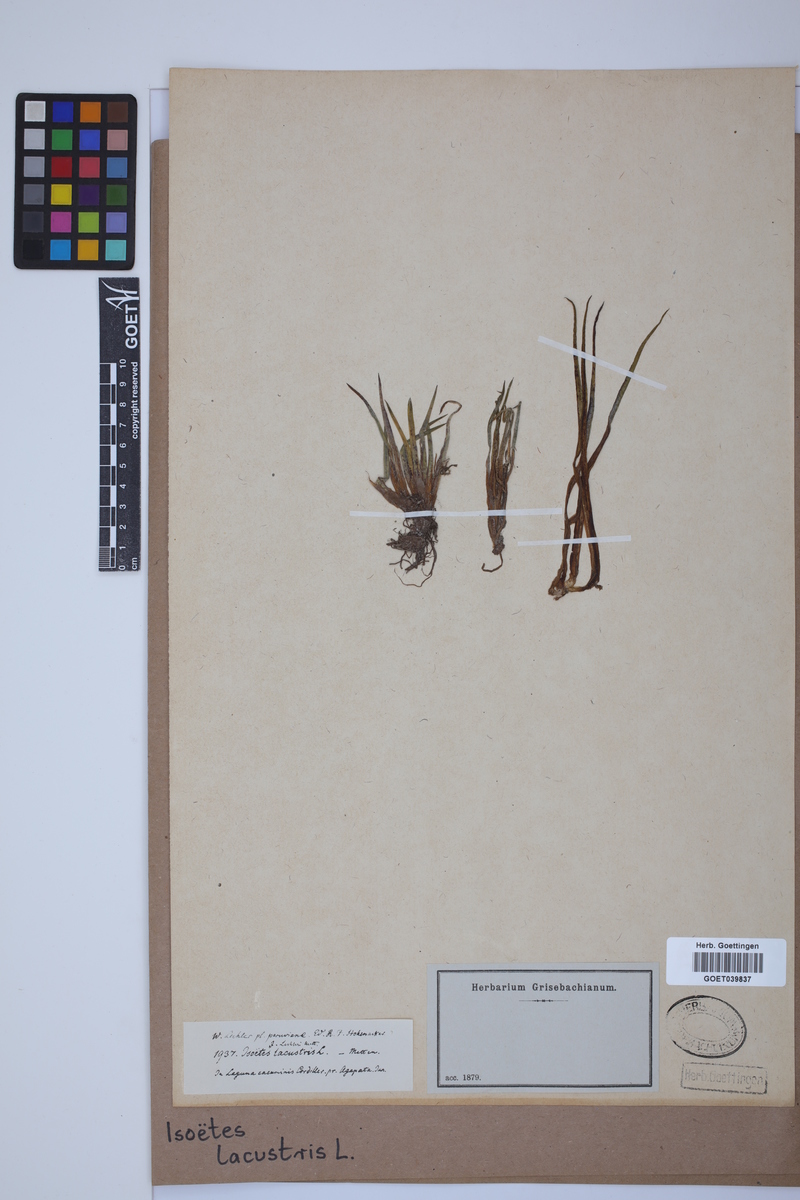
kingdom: Plantae
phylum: Tracheophyta
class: Lycopodiopsida
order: Isoetales
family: Isoetaceae
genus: Isoetes
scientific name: Isoetes lacustris
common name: Common quillwort
